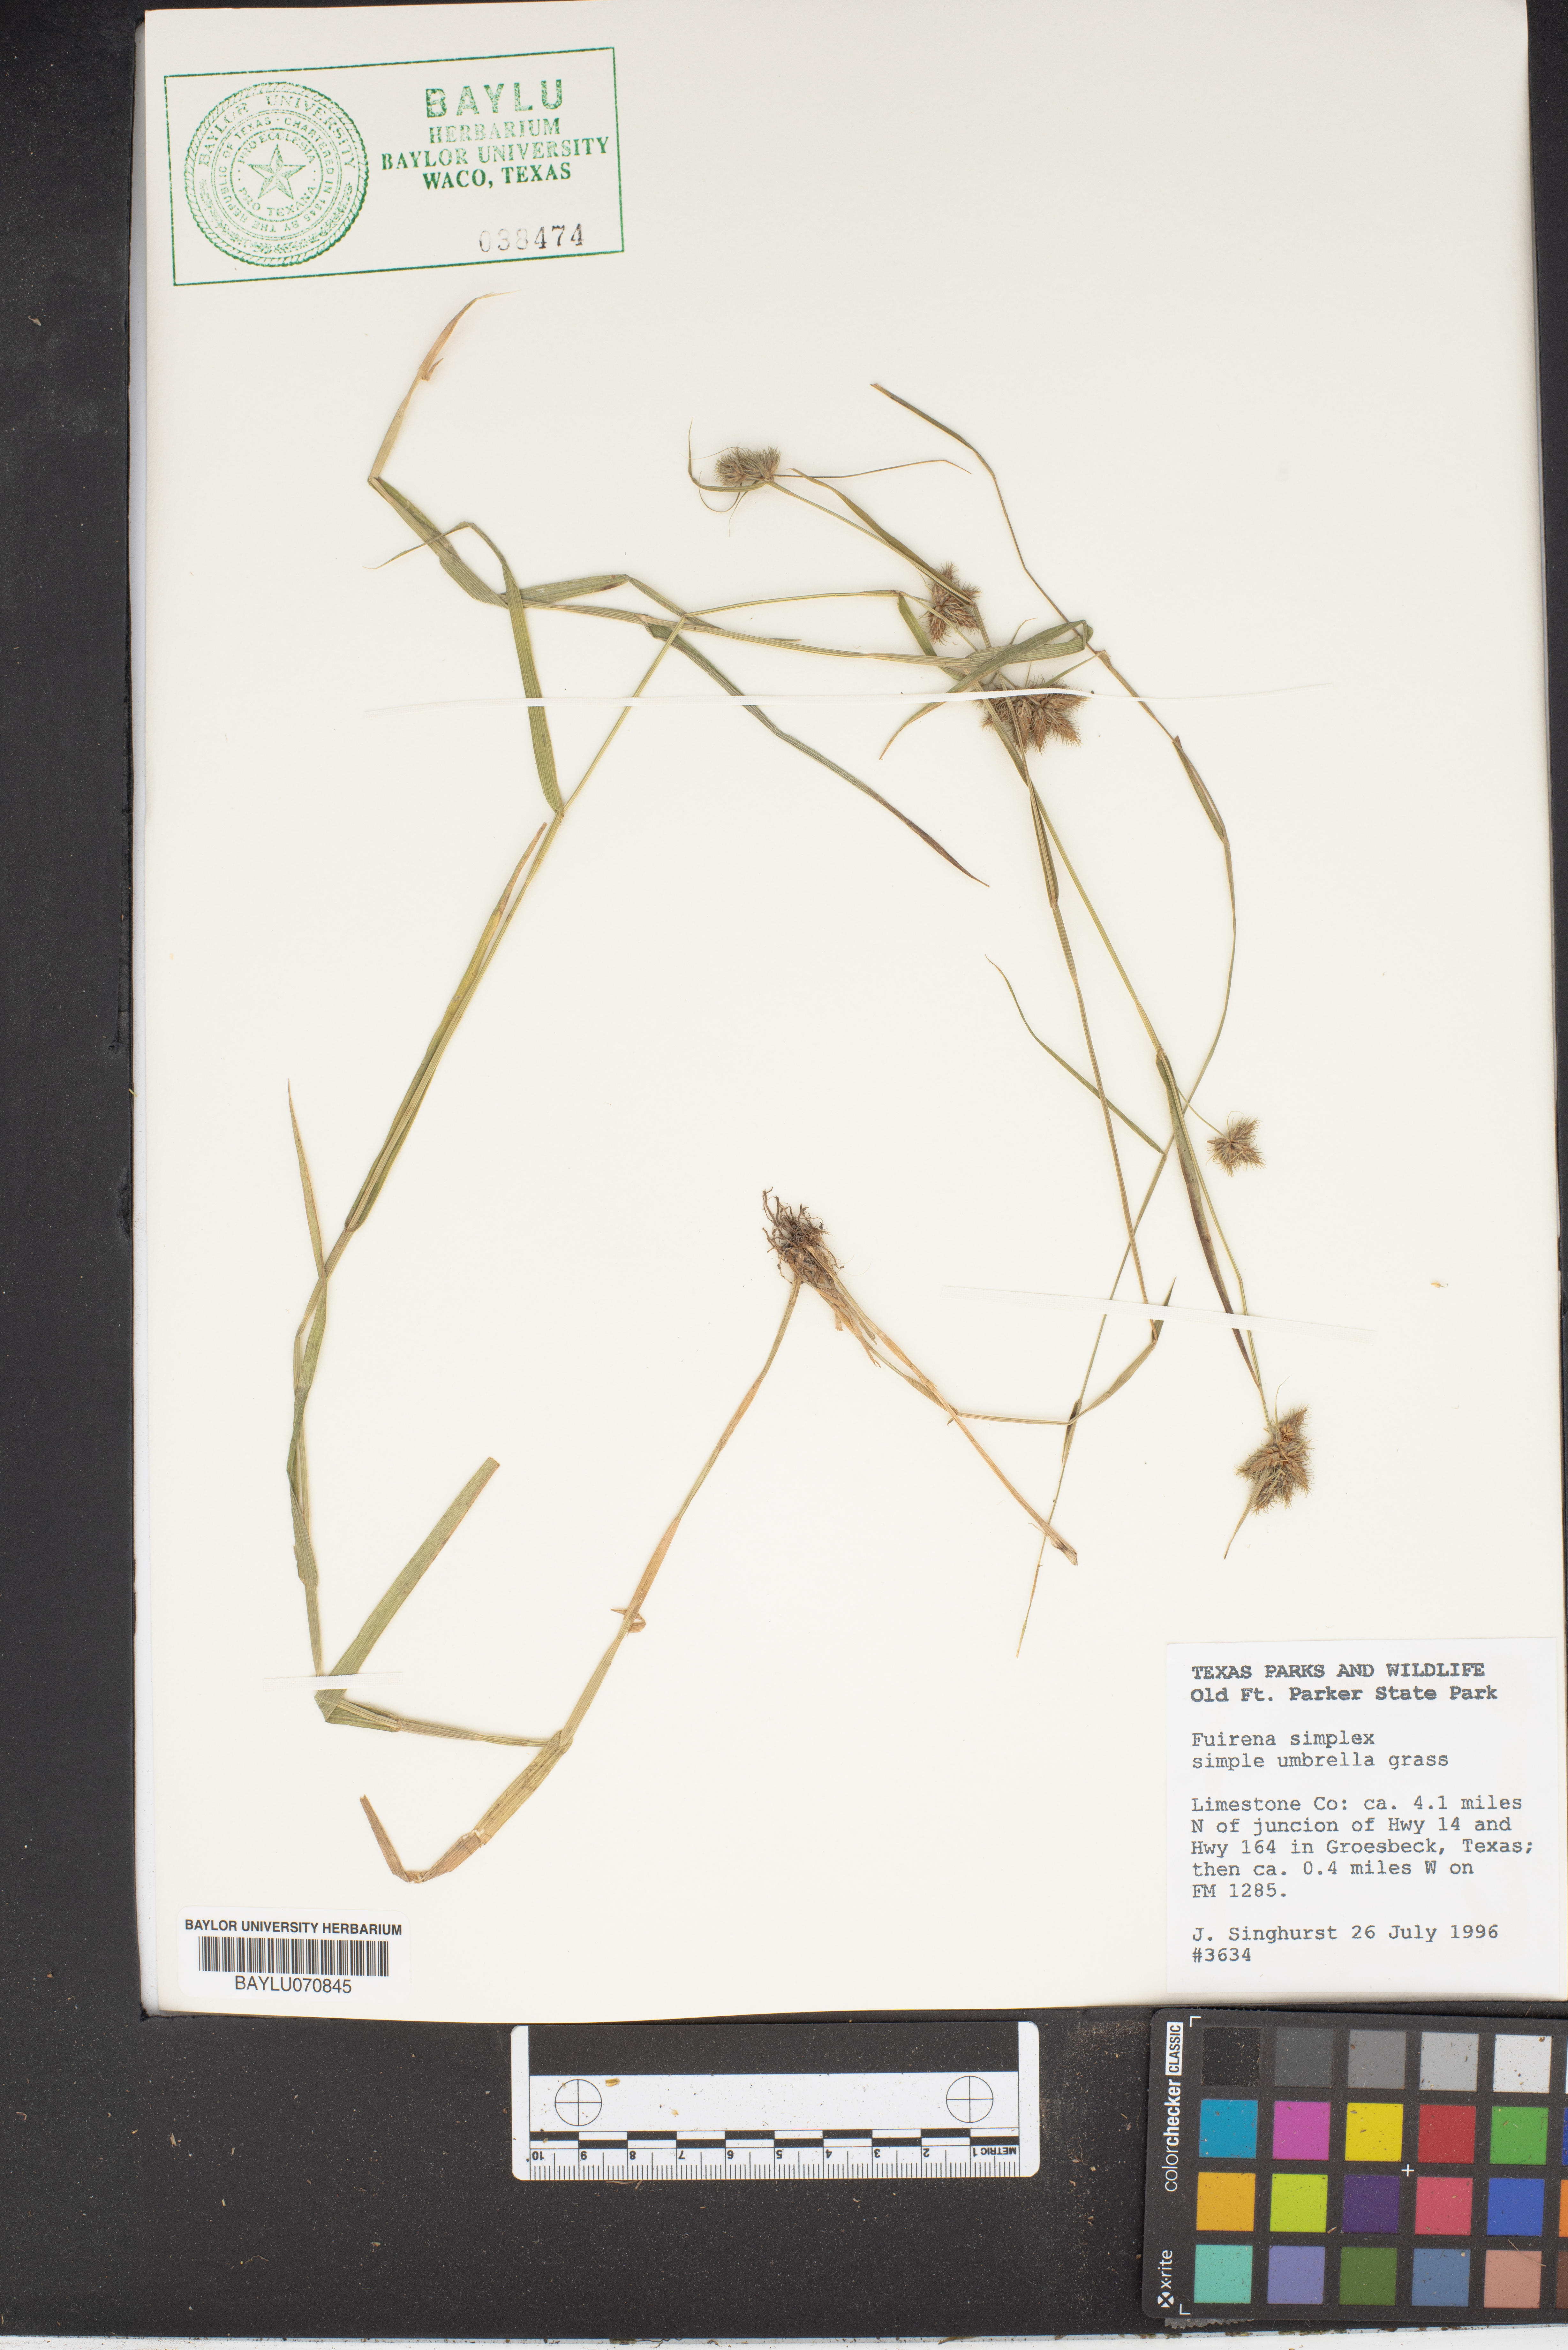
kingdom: Plantae
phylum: Tracheophyta
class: Liliopsida
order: Poales
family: Cyperaceae
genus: Fuirena
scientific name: Fuirena simplex
